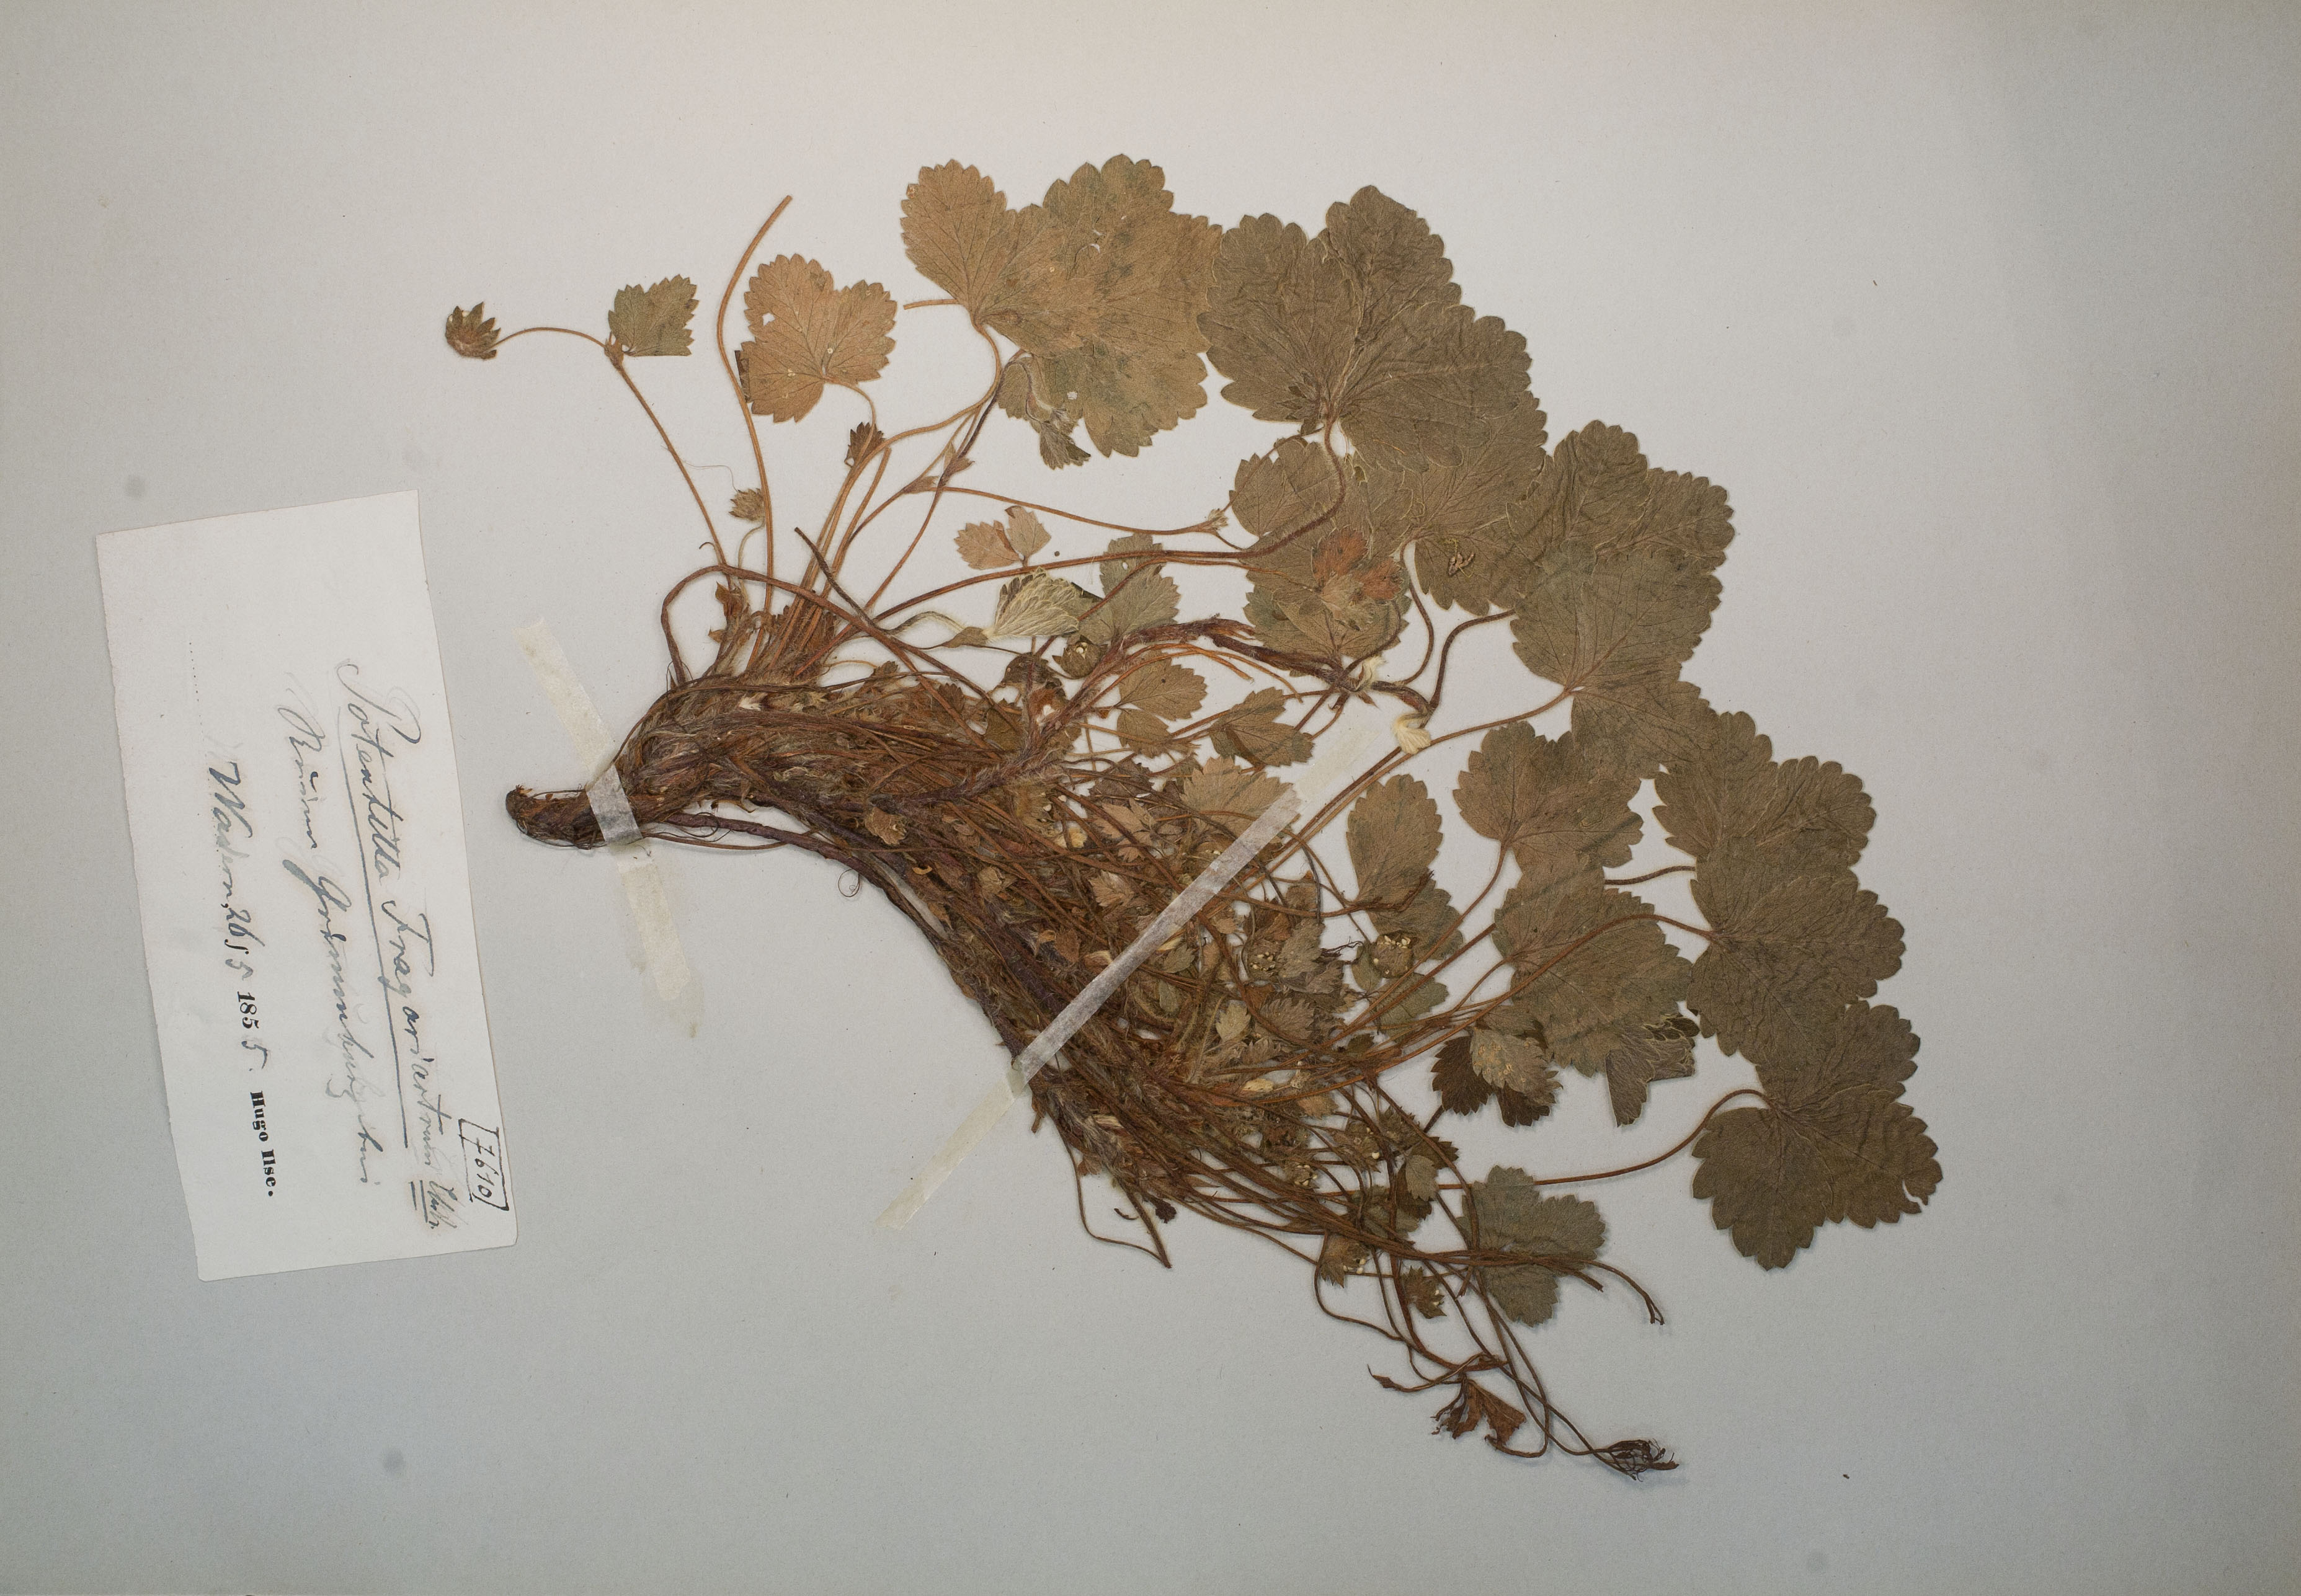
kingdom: Plantae
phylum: Tracheophyta
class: Magnoliopsida
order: Rosales
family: Rosaceae
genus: Potentilla
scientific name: Potentilla sterilis
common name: Barren strawberry
